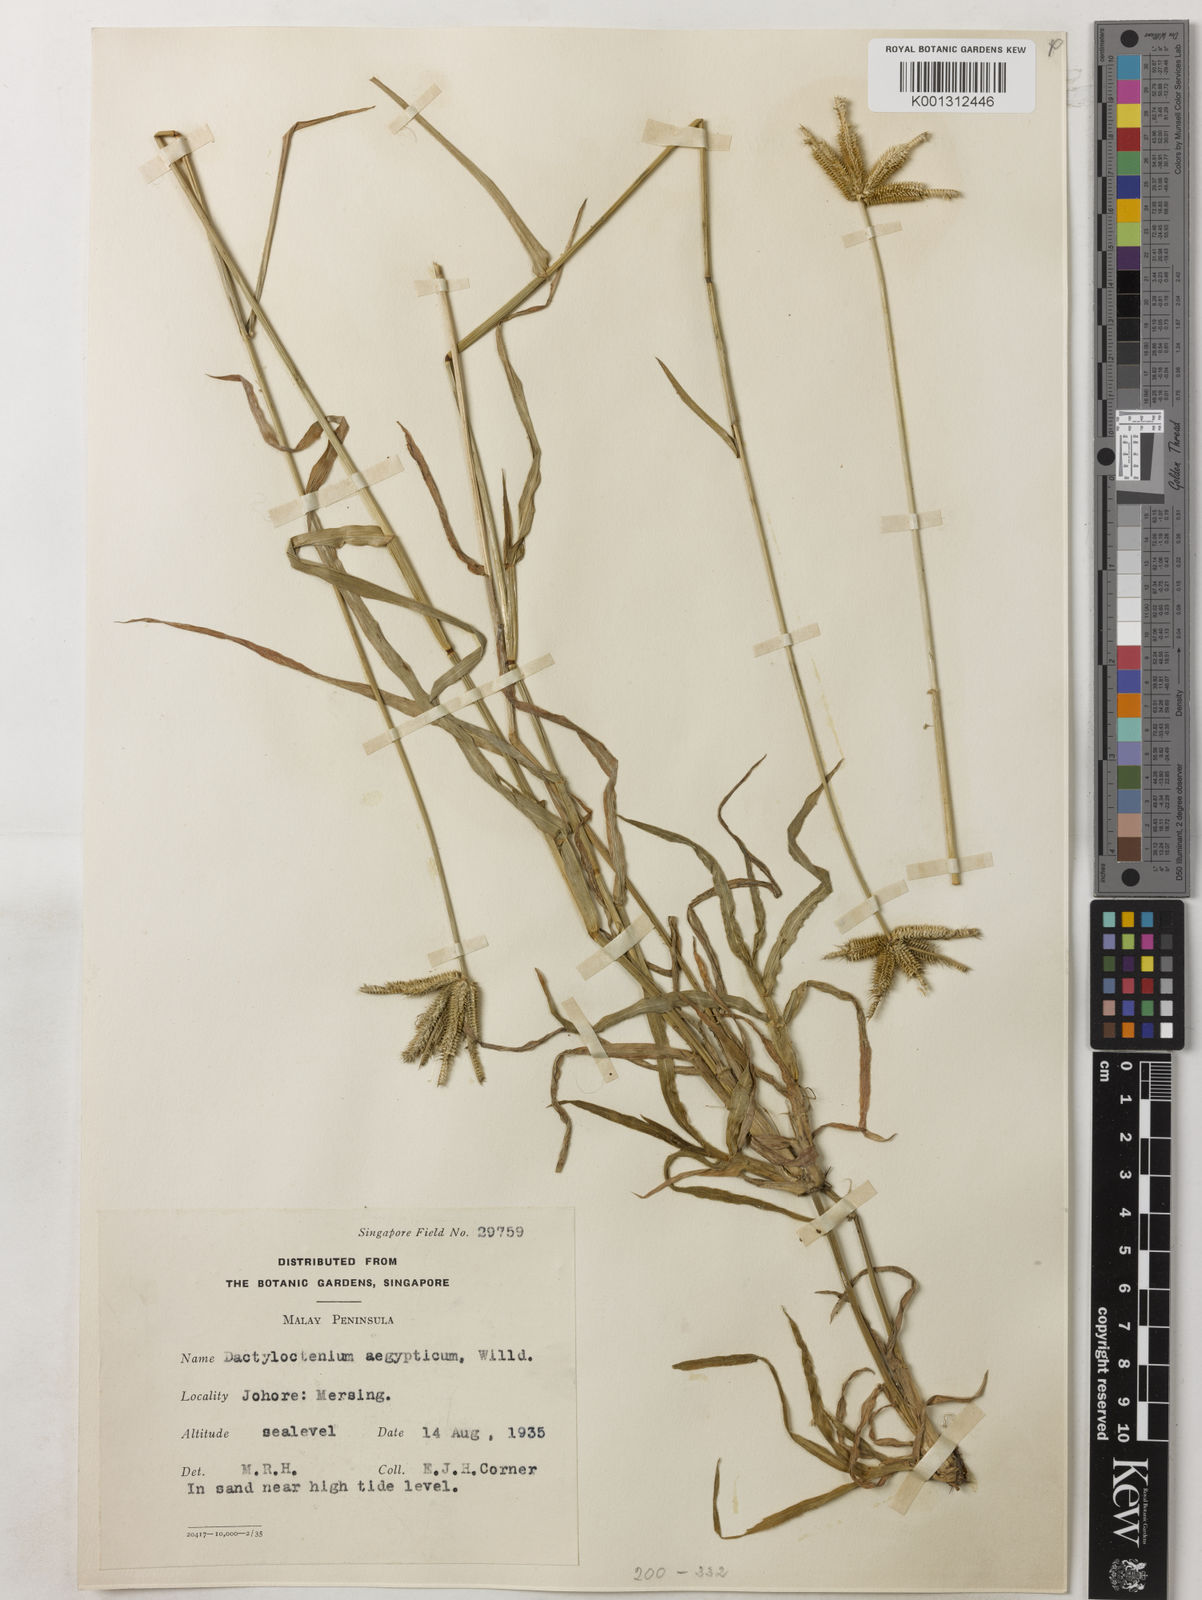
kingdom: Plantae
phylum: Tracheophyta
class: Liliopsida
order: Poales
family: Poaceae
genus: Dactyloctenium
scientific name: Dactyloctenium aegyptium
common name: Egyptian grass
